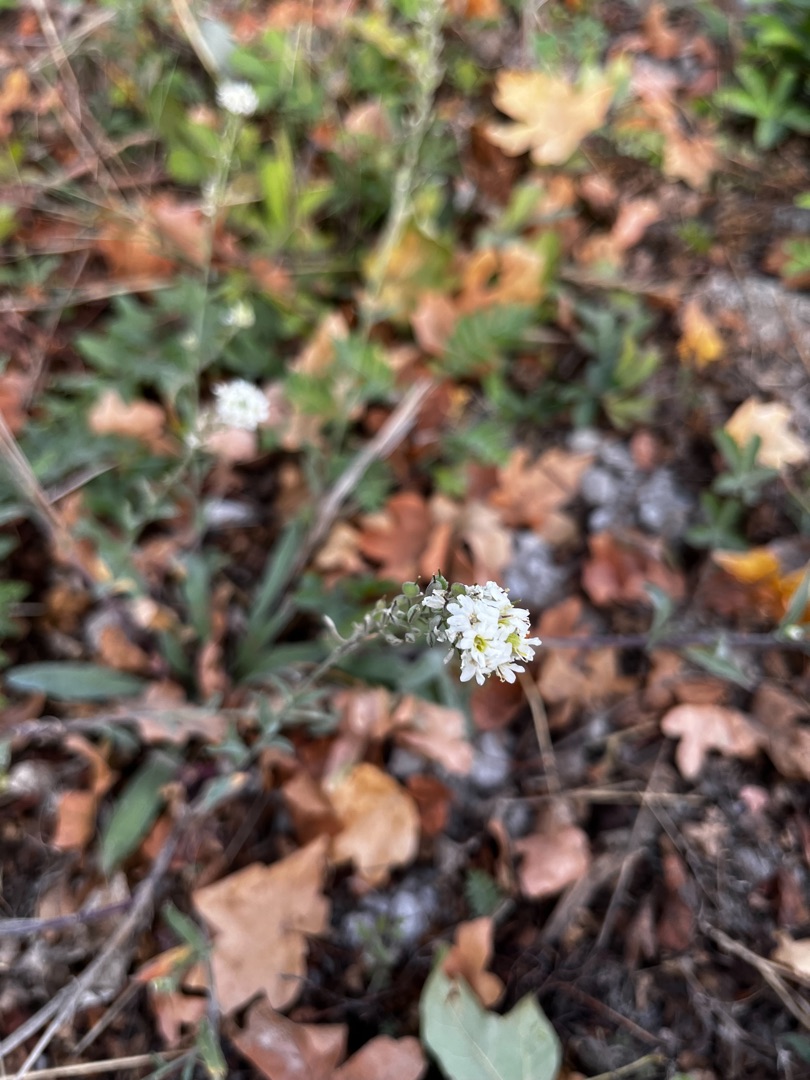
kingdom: Plantae
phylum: Tracheophyta
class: Magnoliopsida
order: Brassicales
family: Brassicaceae
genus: Berteroa
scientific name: Berteroa incana
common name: Kløvplade
